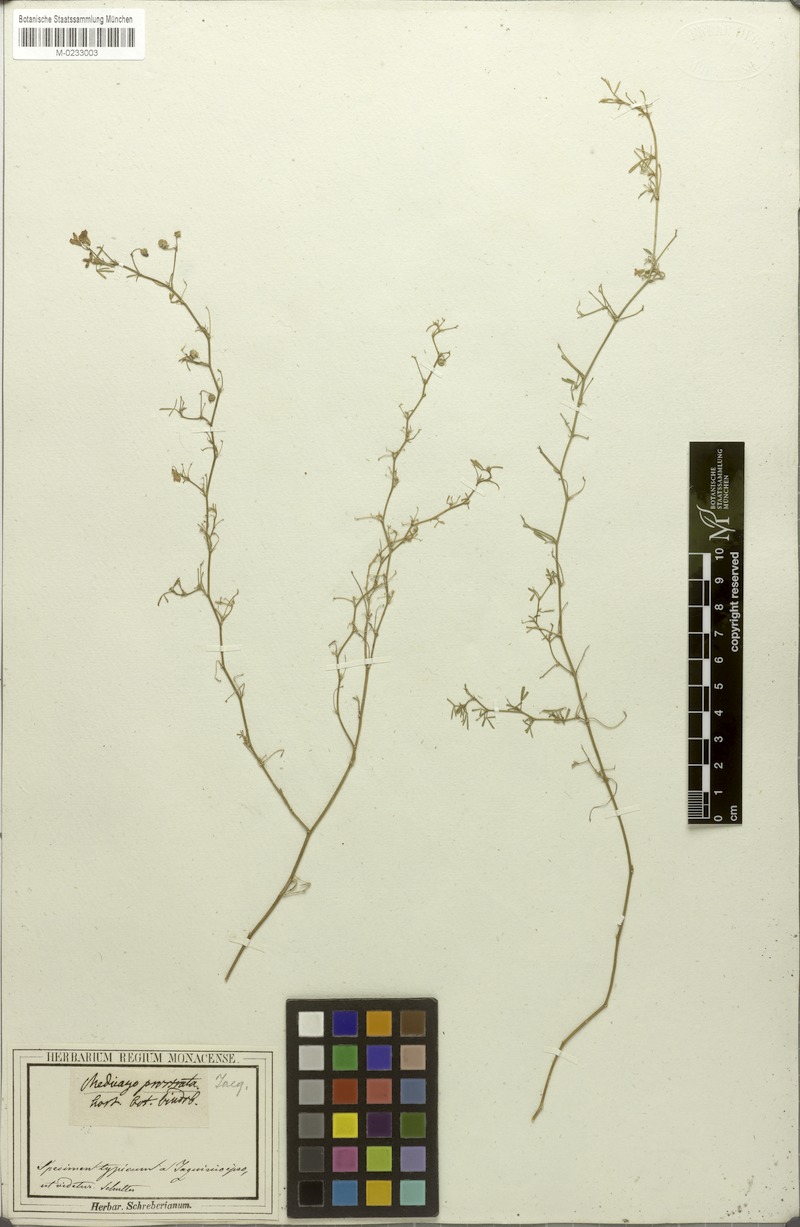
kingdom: Plantae
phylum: Tracheophyta
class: Magnoliopsida
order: Fabales
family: Fabaceae
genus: Medicago
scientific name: Medicago prostrata
